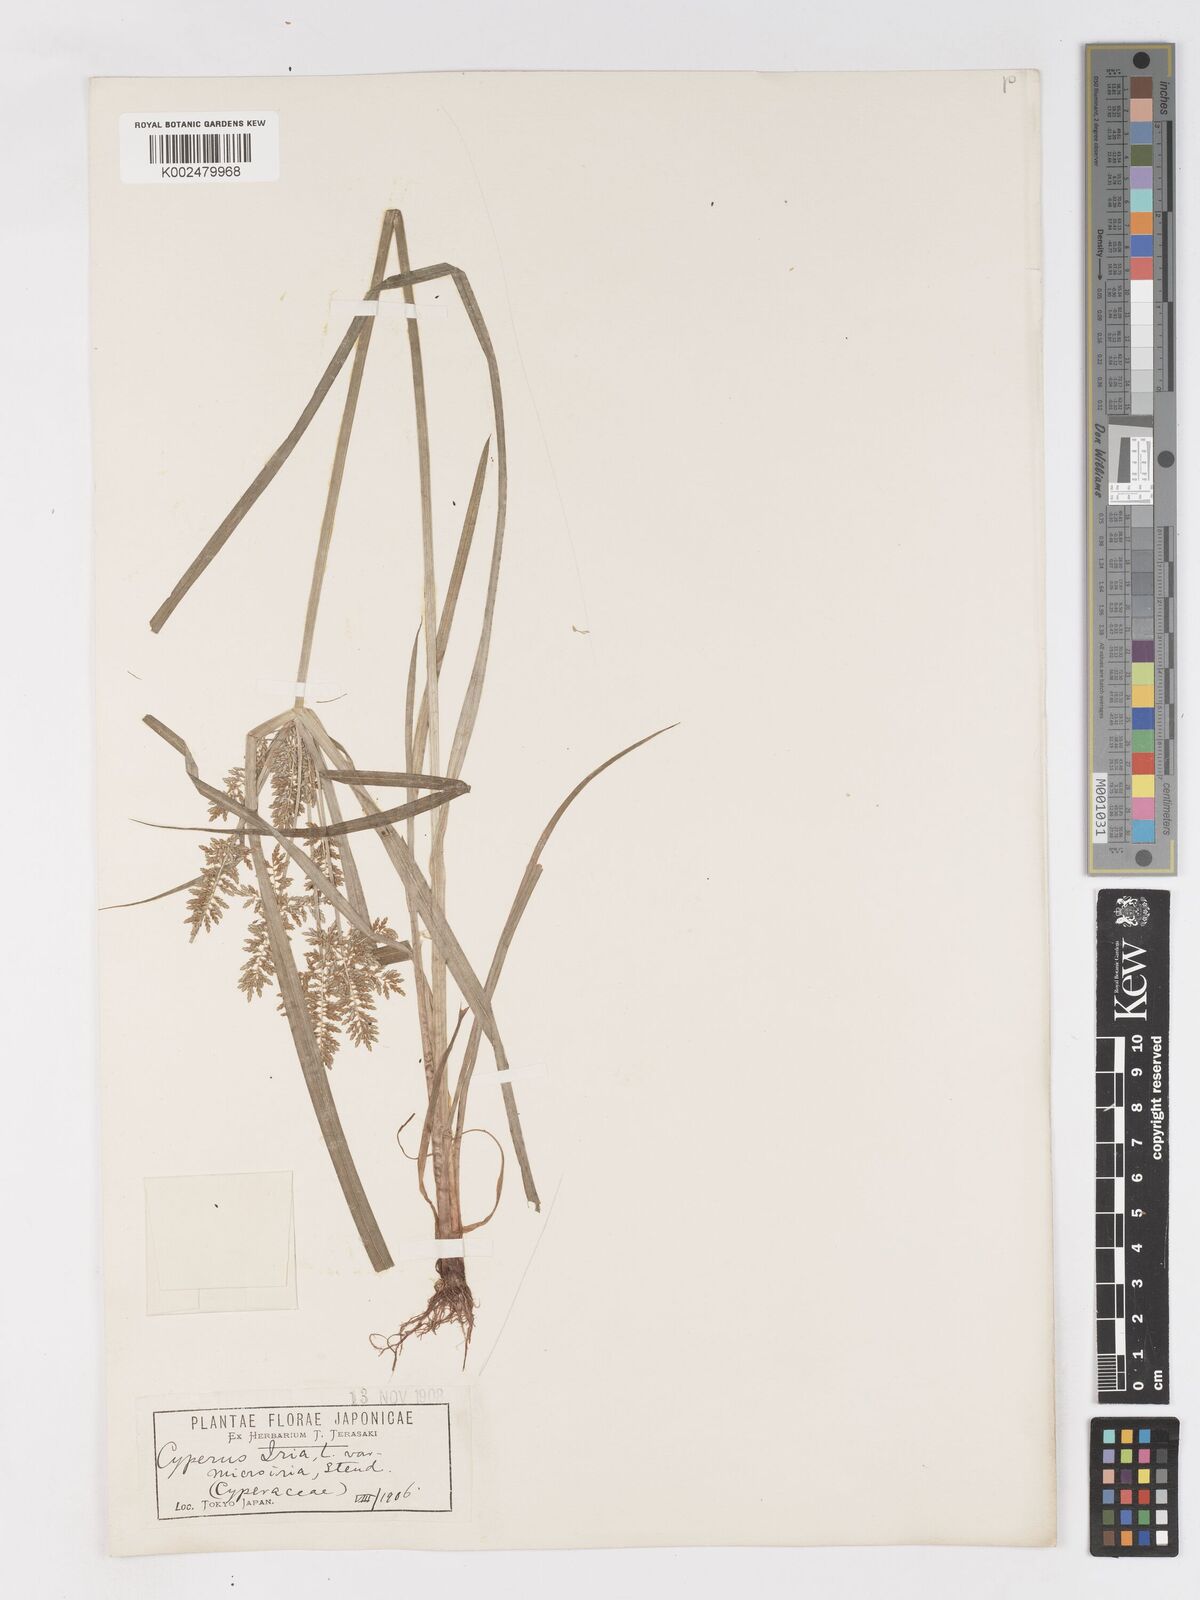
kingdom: Plantae
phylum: Tracheophyta
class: Liliopsida
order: Poales
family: Cyperaceae
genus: Cyperus
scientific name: Cyperus microiria
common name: Asian flatsedge
